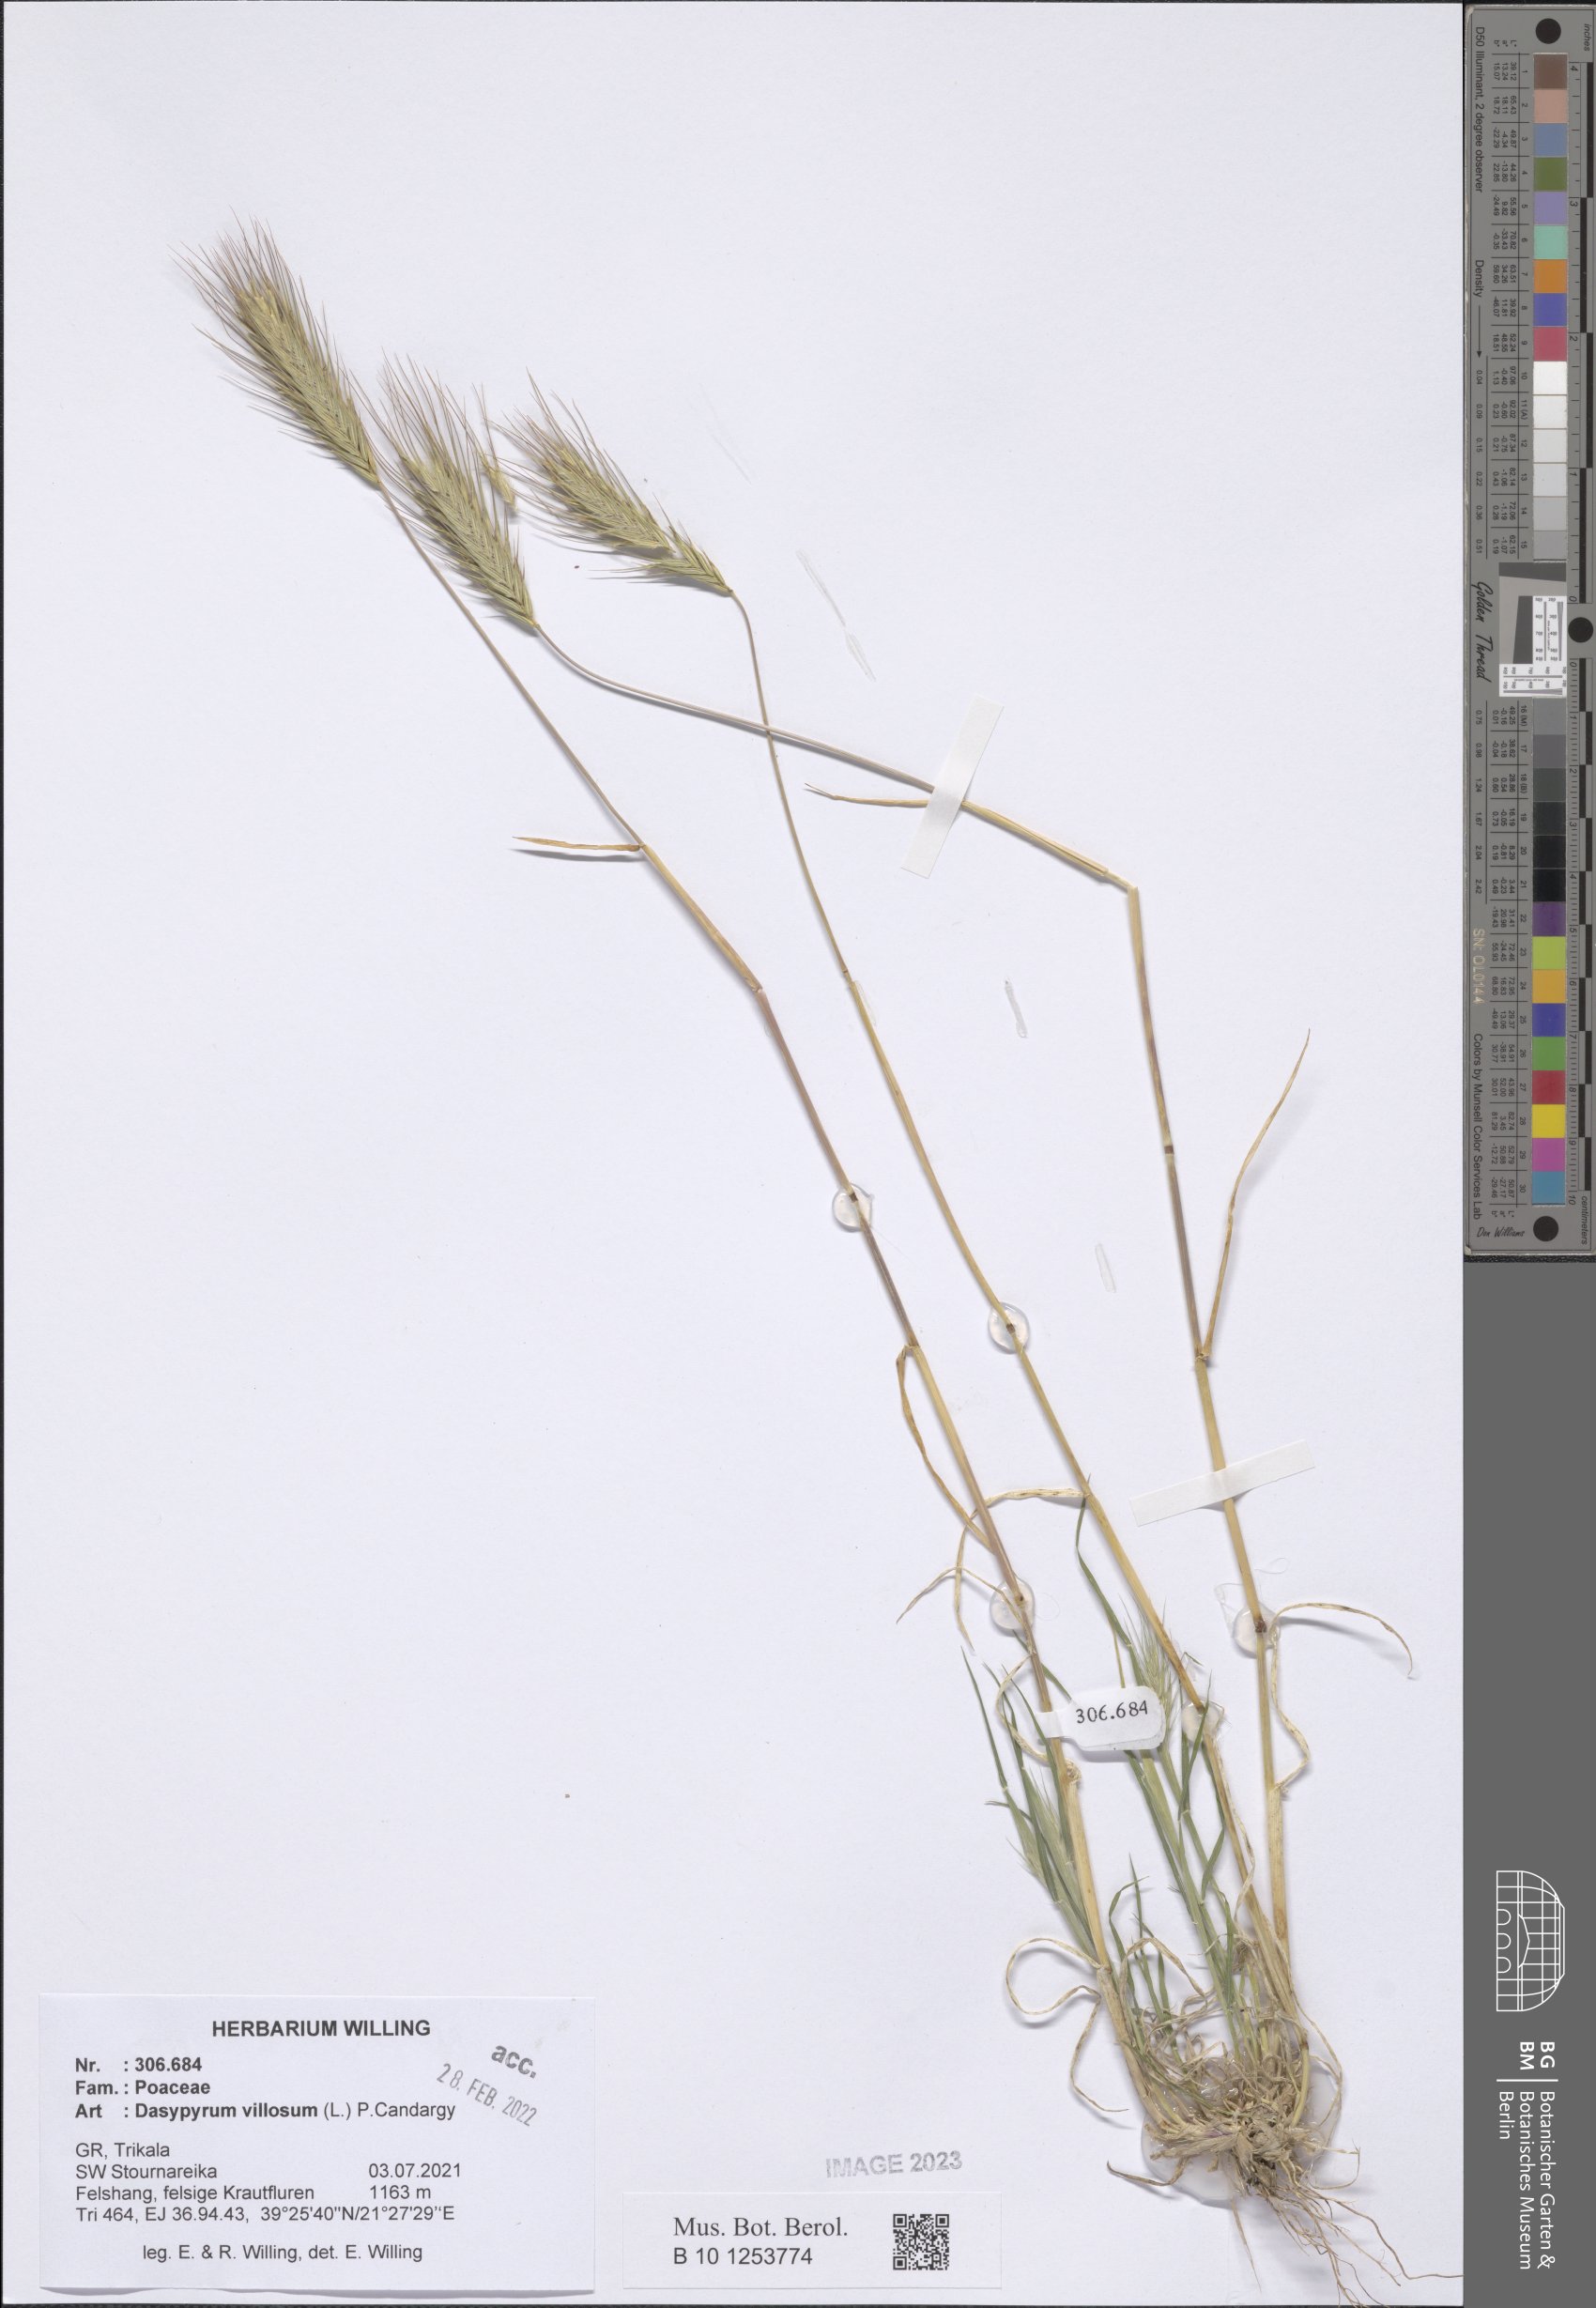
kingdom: Plantae
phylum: Tracheophyta
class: Liliopsida
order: Poales
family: Poaceae
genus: Dasypyrum
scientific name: Dasypyrum villosum
